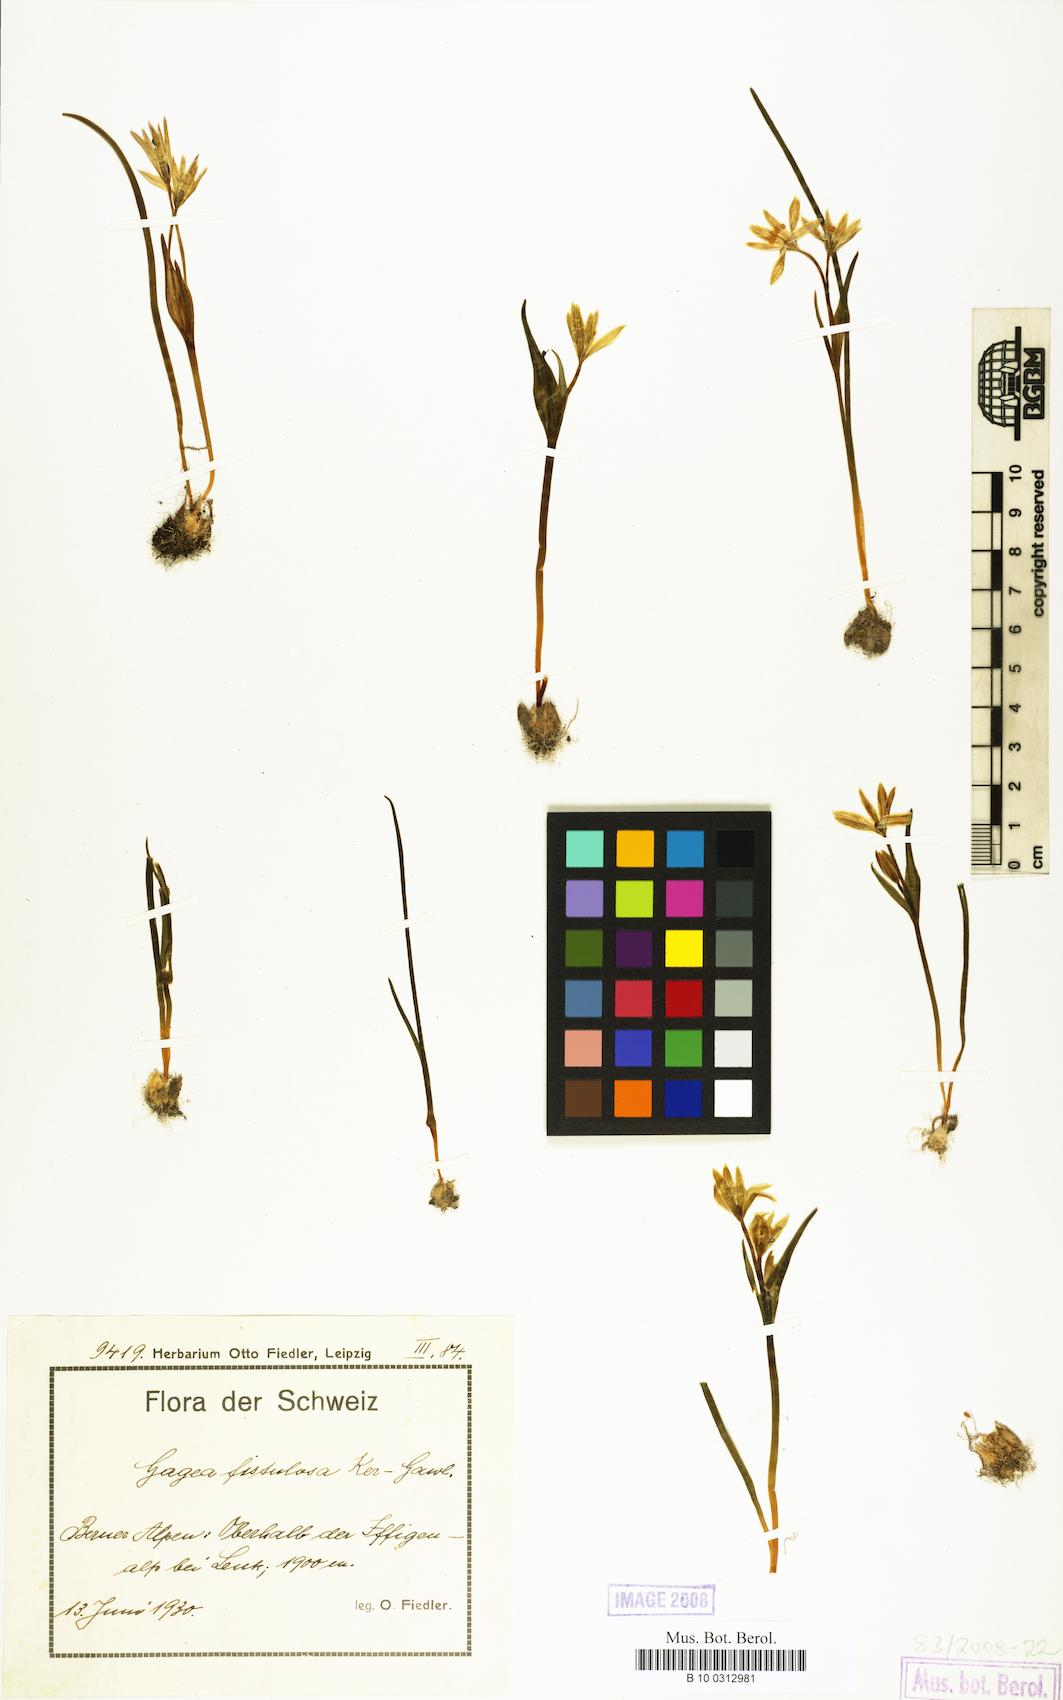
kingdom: Plantae
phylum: Tracheophyta
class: Liliopsida
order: Liliales
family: Liliaceae
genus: Gagea
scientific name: Gagea
